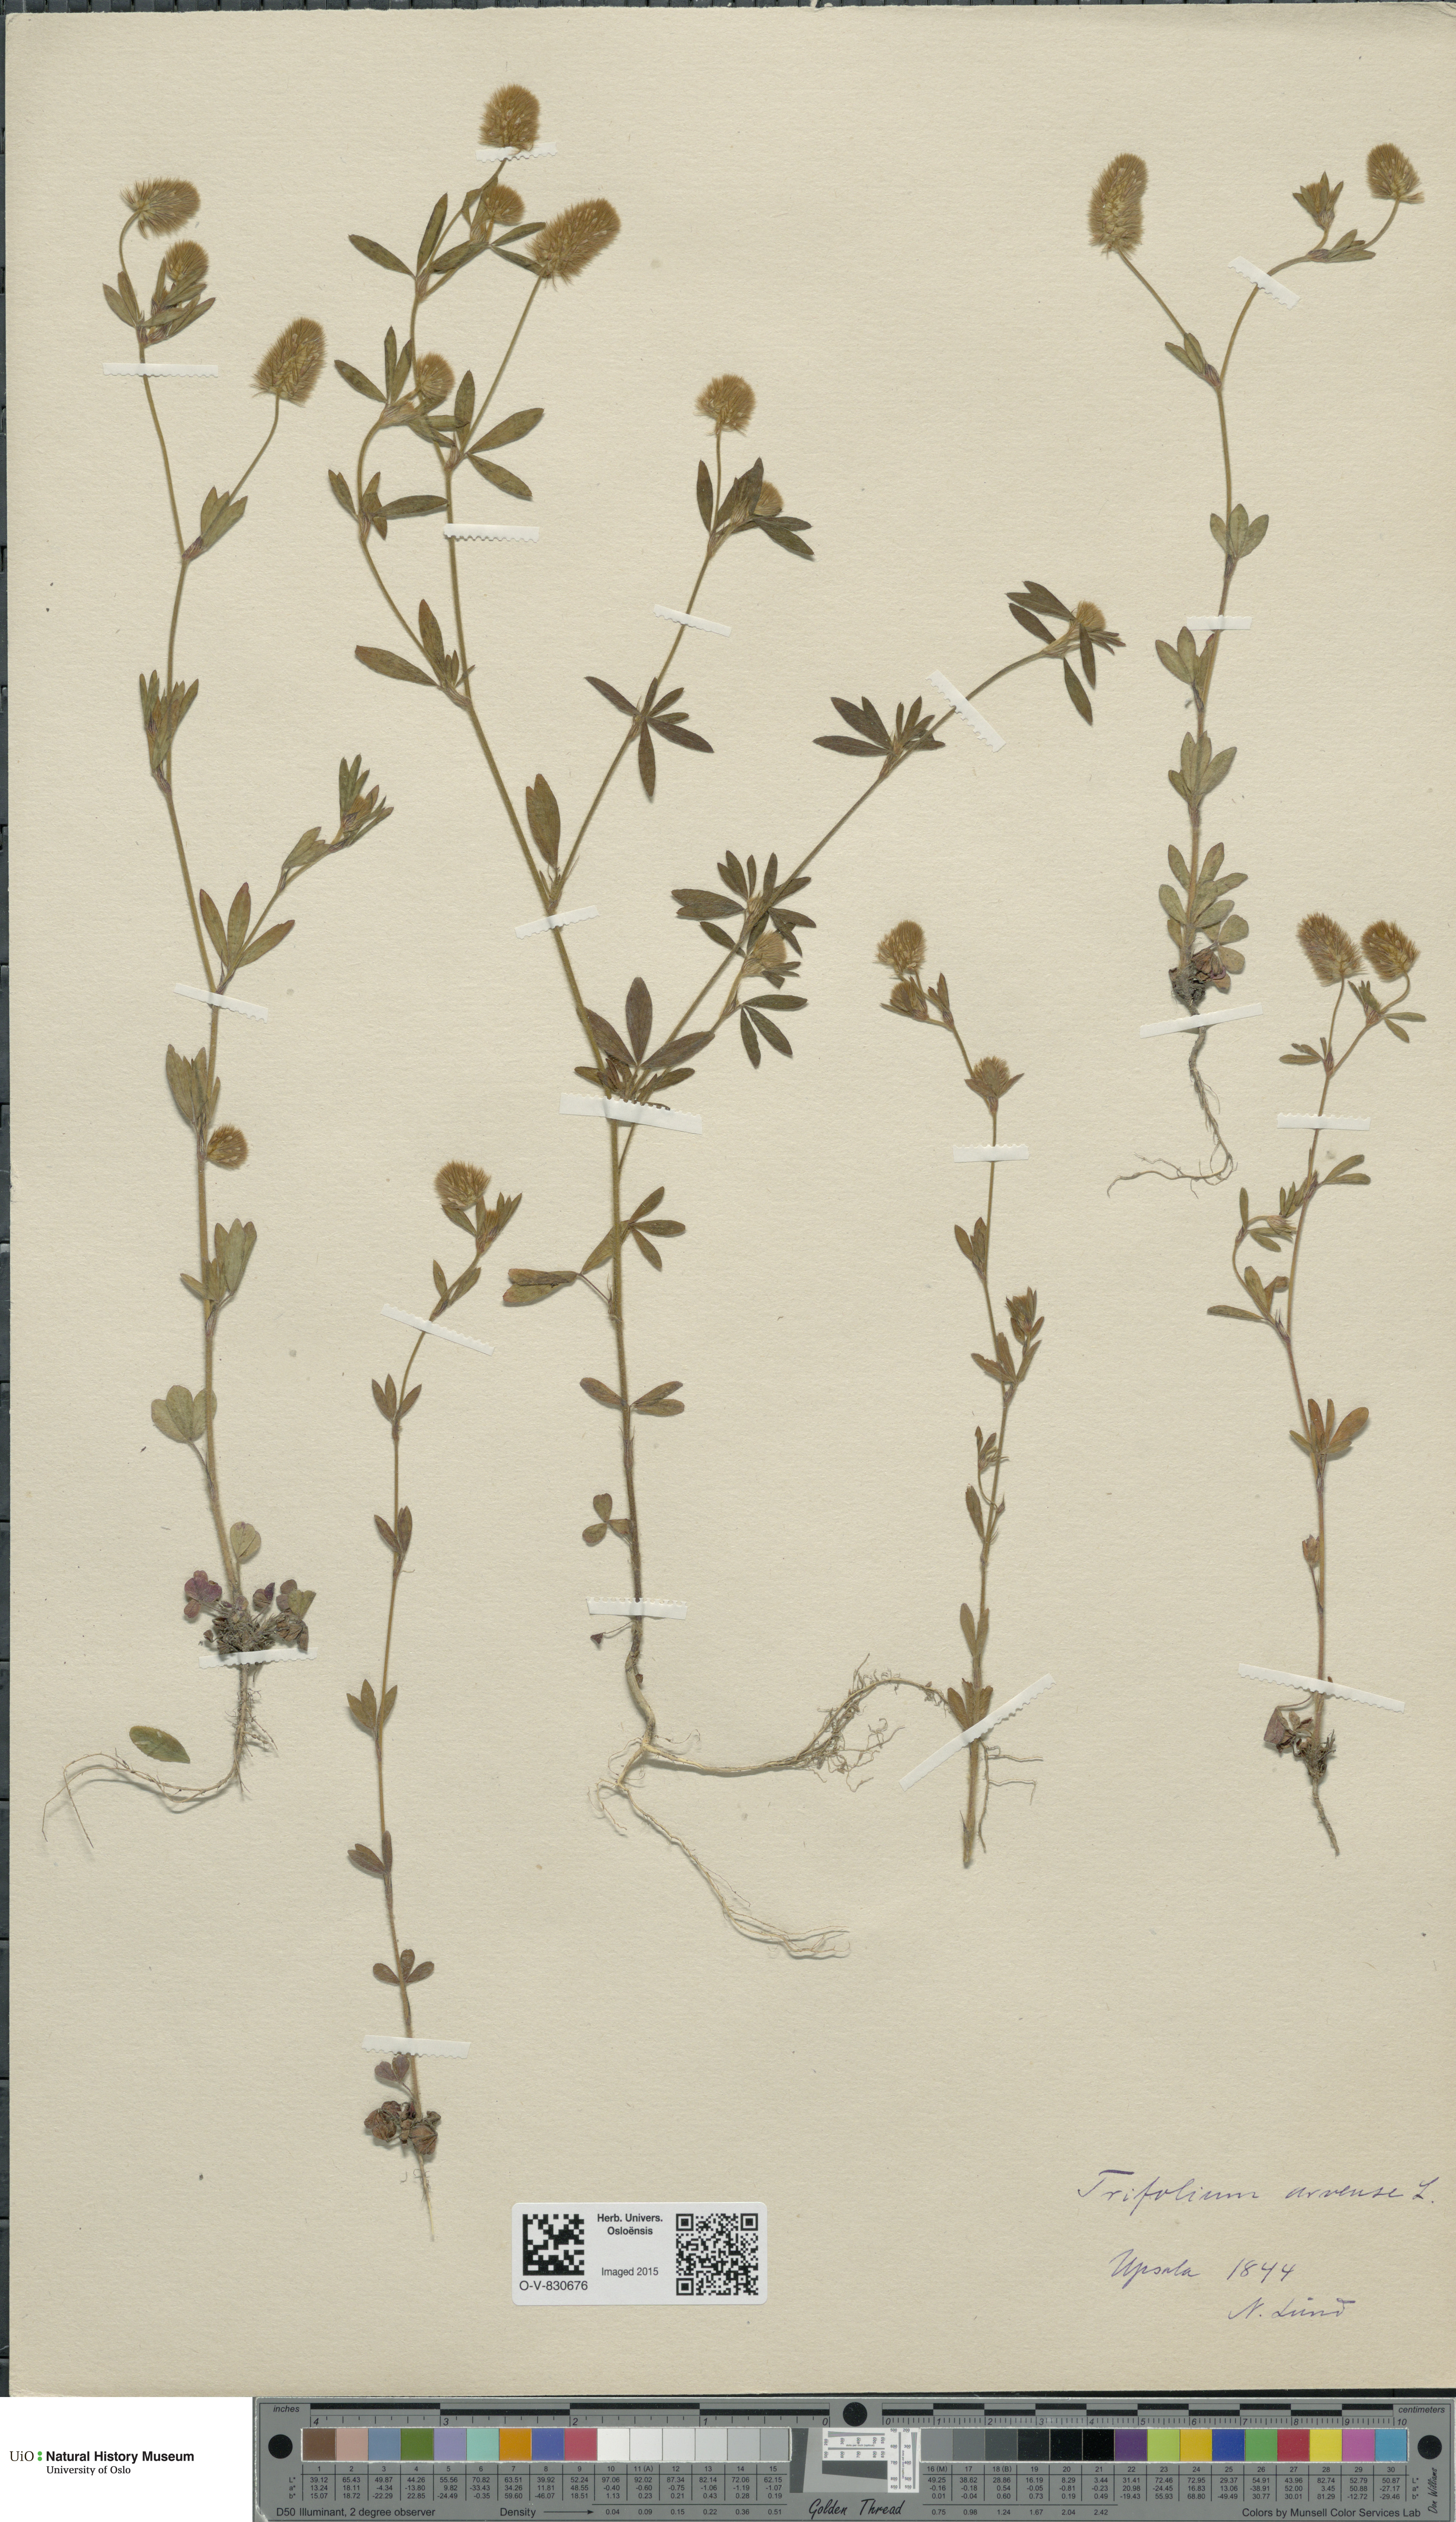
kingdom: Plantae
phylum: Tracheophyta
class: Magnoliopsida
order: Fabales
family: Fabaceae
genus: Trifolium
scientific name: Trifolium arvense
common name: Hare's-foot clover
